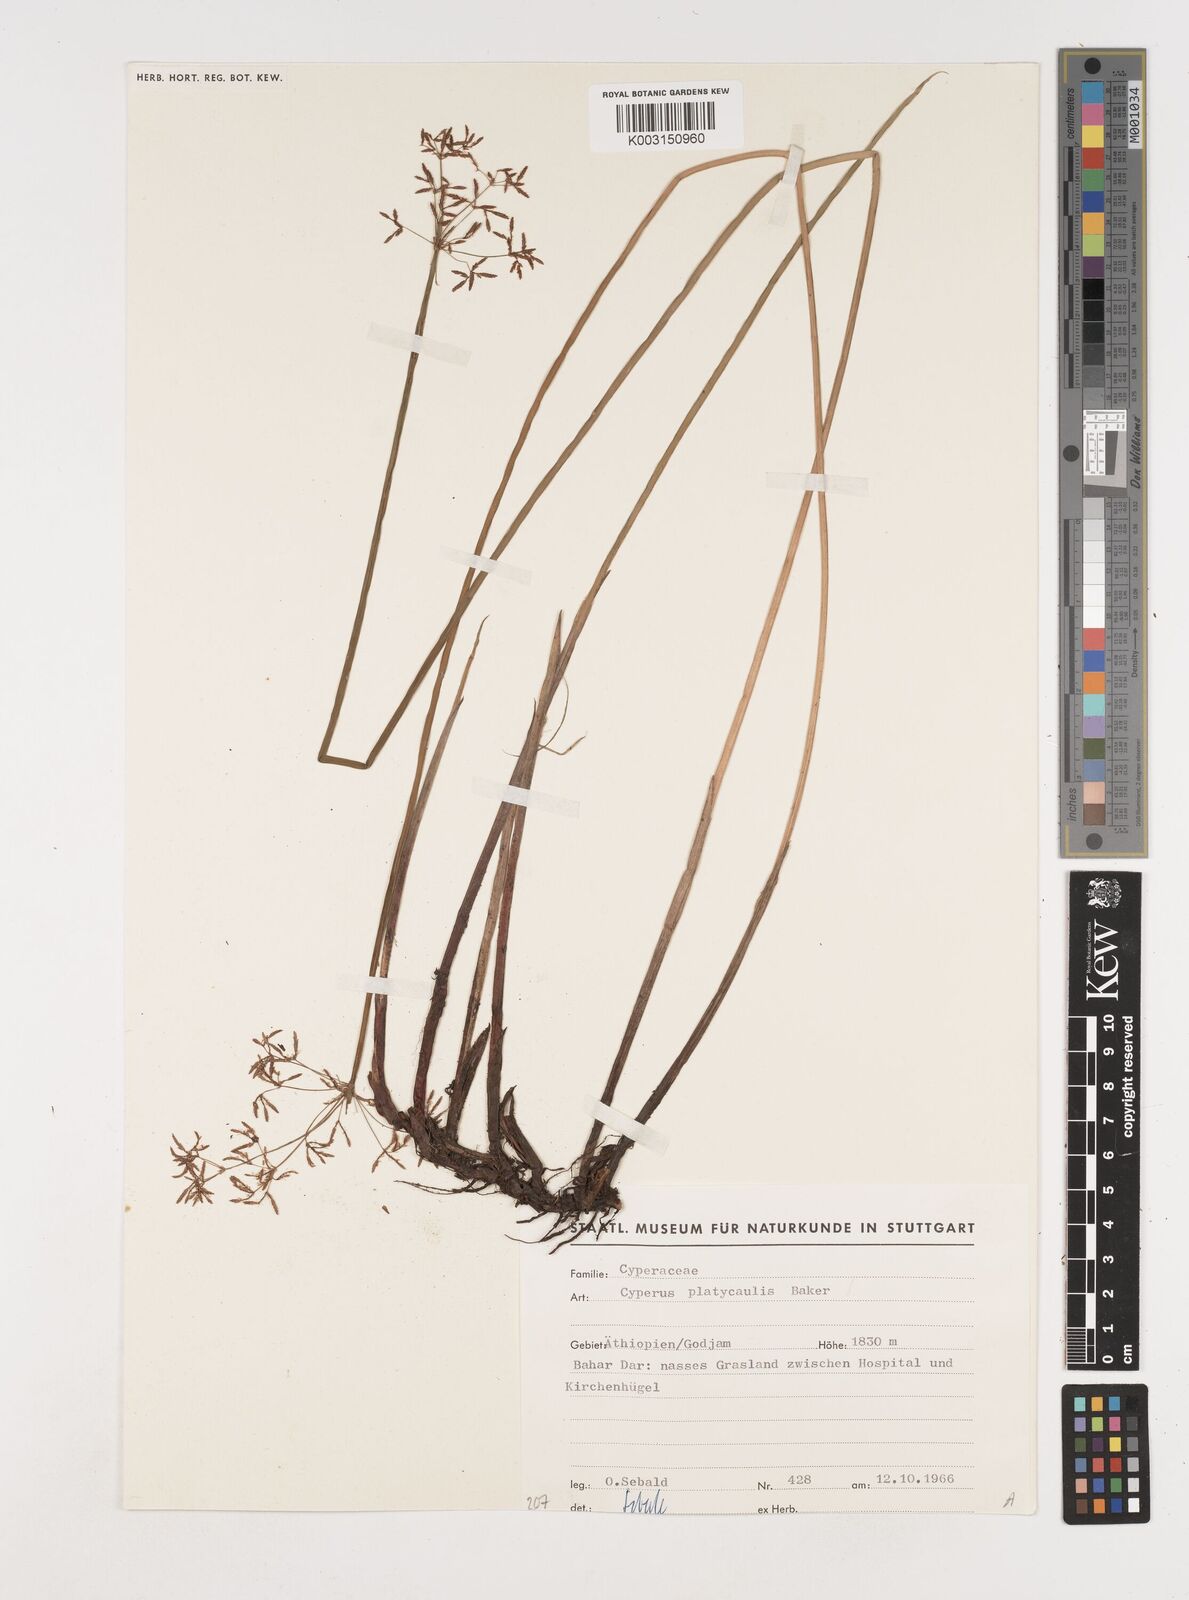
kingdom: Plantae
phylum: Tracheophyta
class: Liliopsida
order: Poales
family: Cyperaceae
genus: Cyperus
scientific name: Cyperus platycaulis
